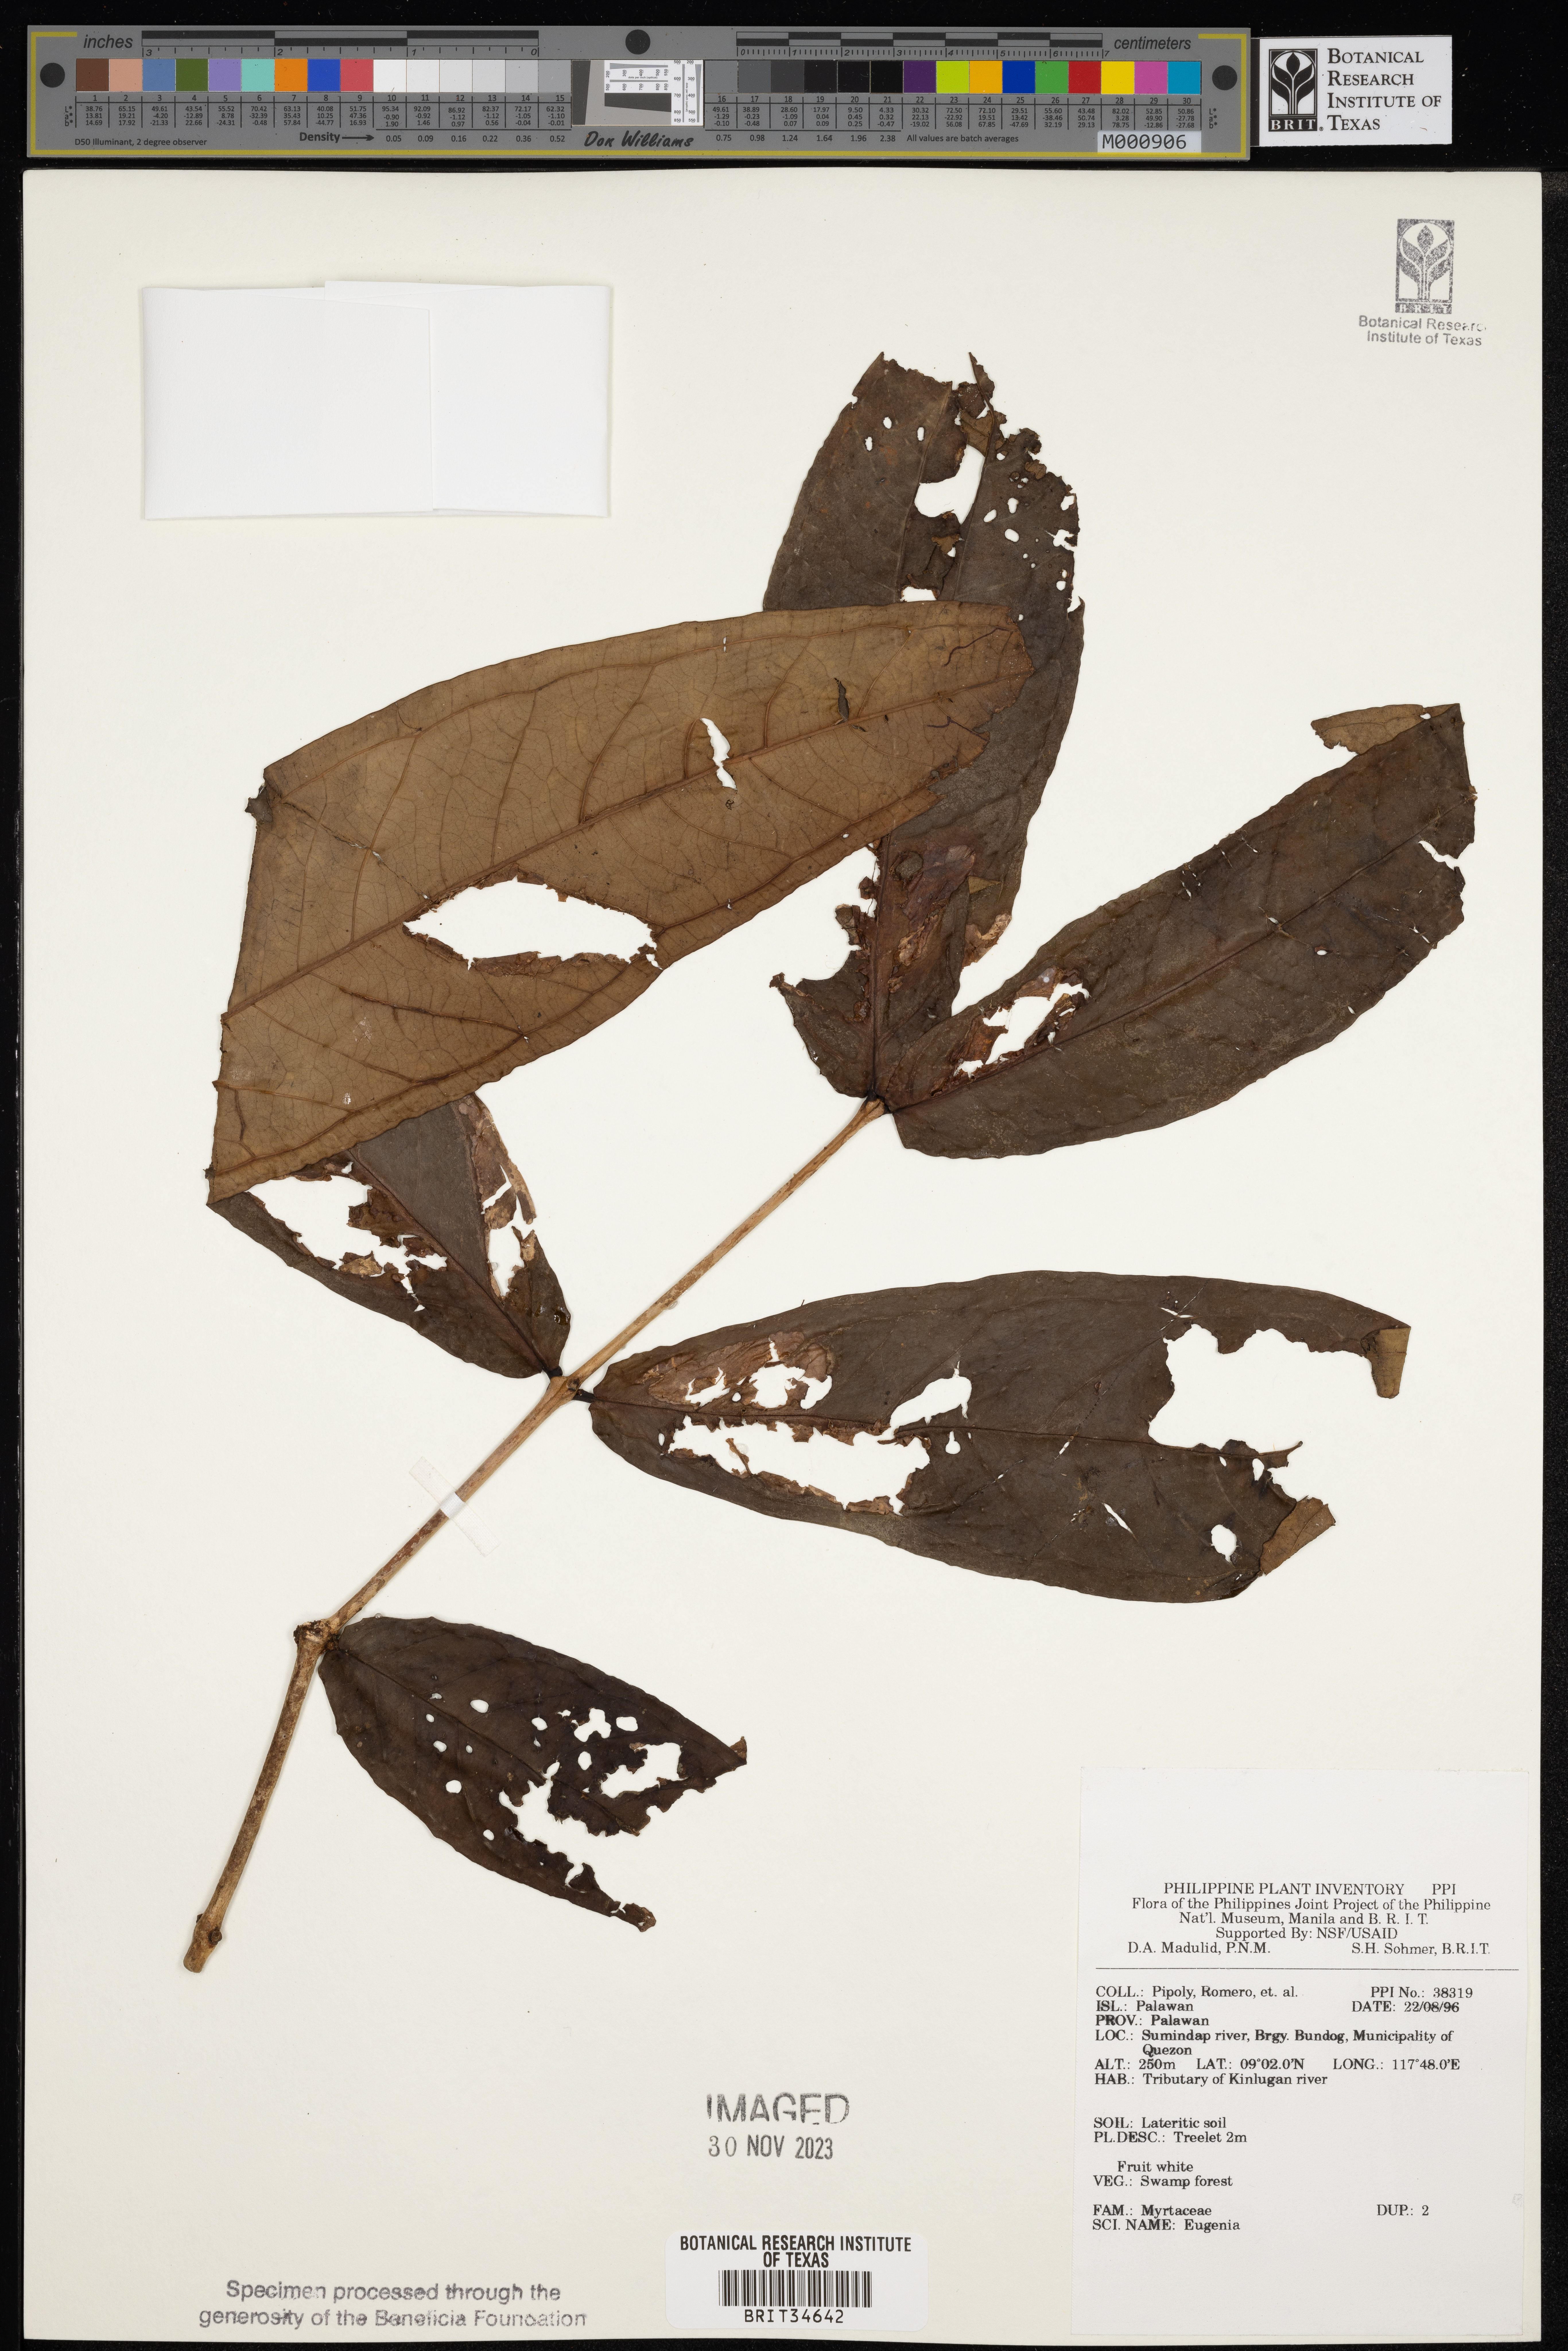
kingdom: Plantae
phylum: Tracheophyta
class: Magnoliopsida
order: Myrtales
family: Myrtaceae
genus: Eugenia
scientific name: Eugenia
